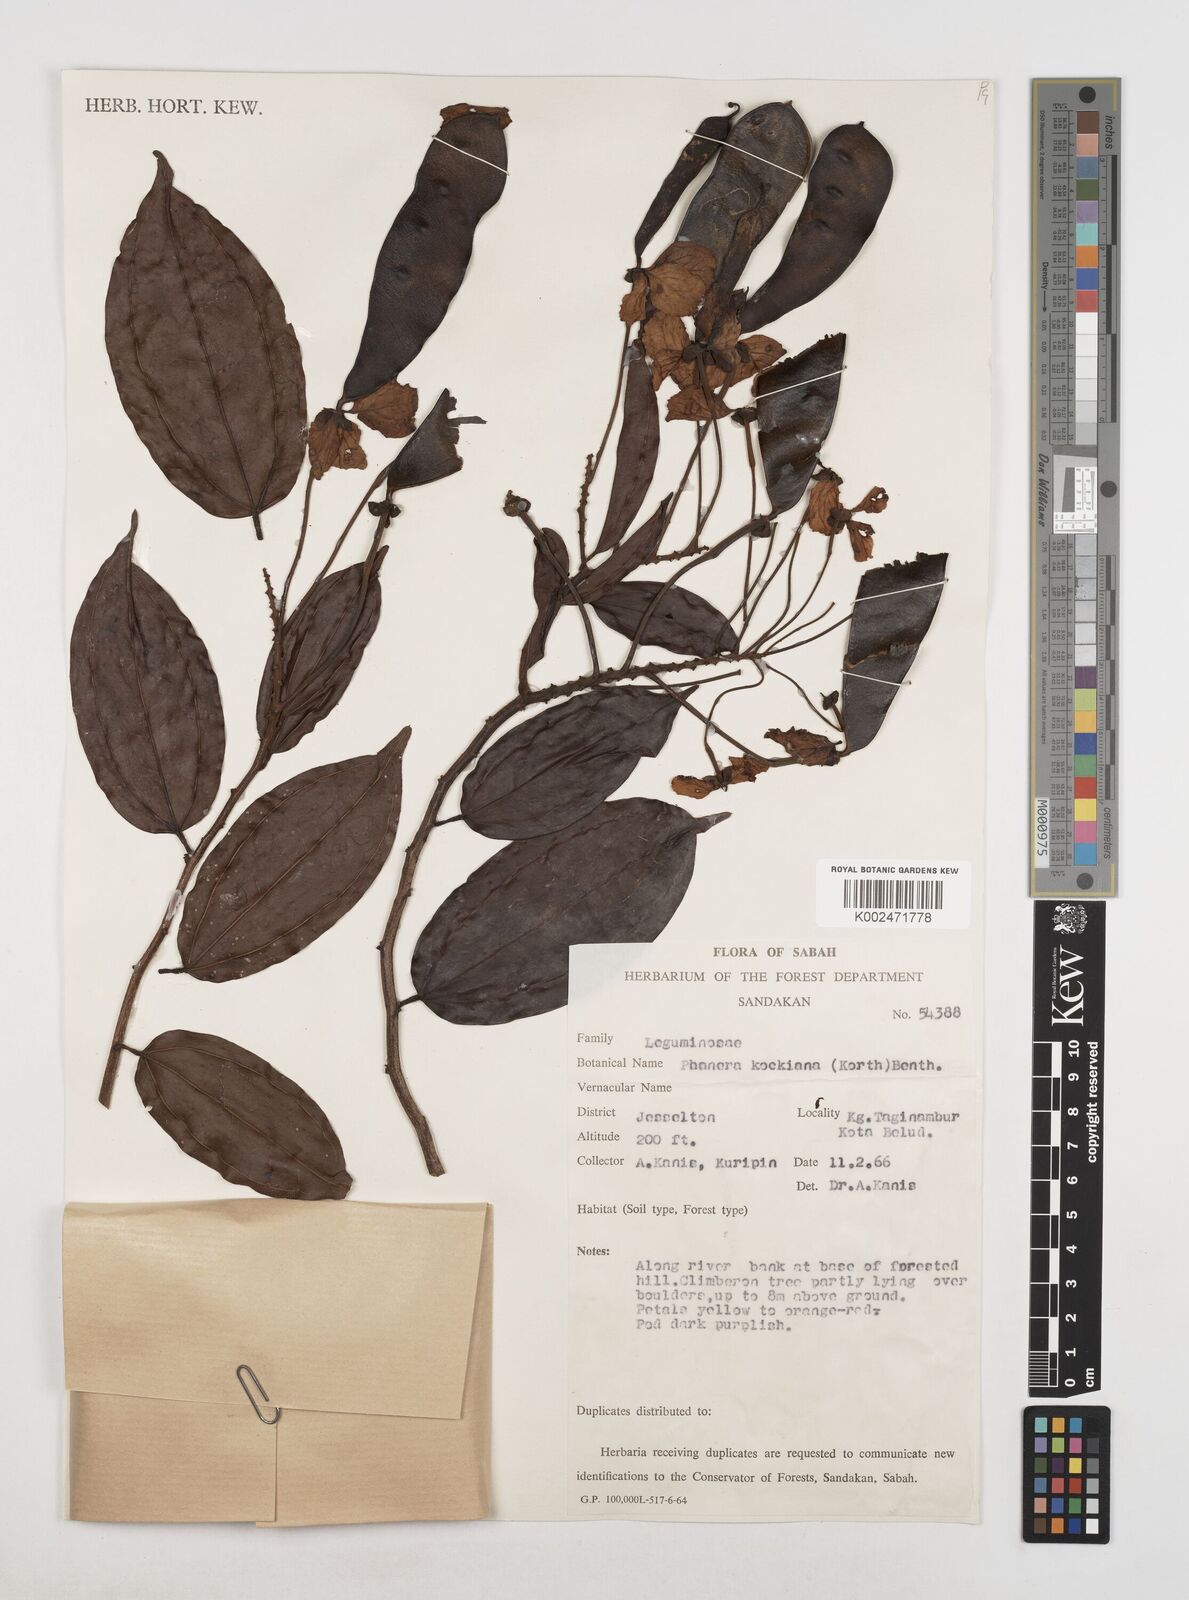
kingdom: Plantae
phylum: Tracheophyta
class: Magnoliopsida
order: Fabales
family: Fabaceae
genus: Phanera
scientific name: Phanera kockiana
